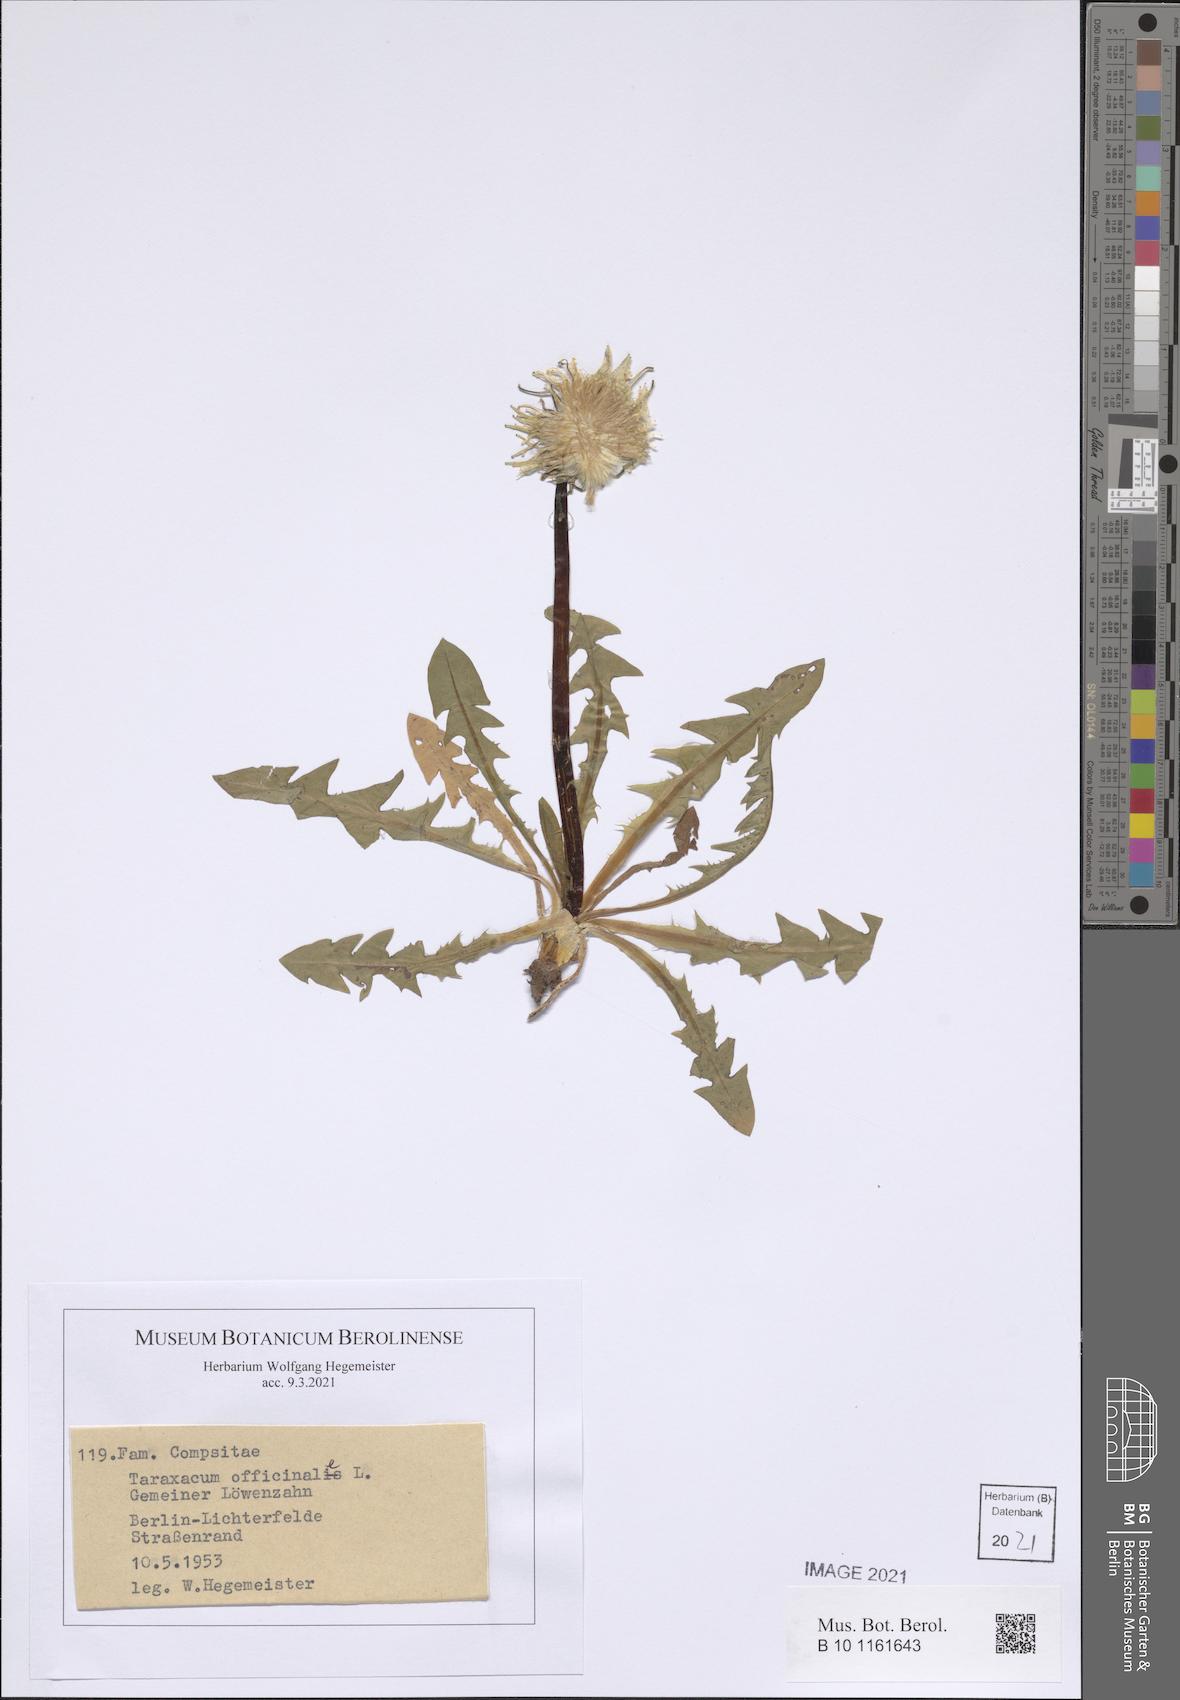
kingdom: Plantae
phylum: Tracheophyta
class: Magnoliopsida
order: Asterales
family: Asteraceae
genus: Taraxacum
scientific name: Taraxacum officinale
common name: Common dandelion
